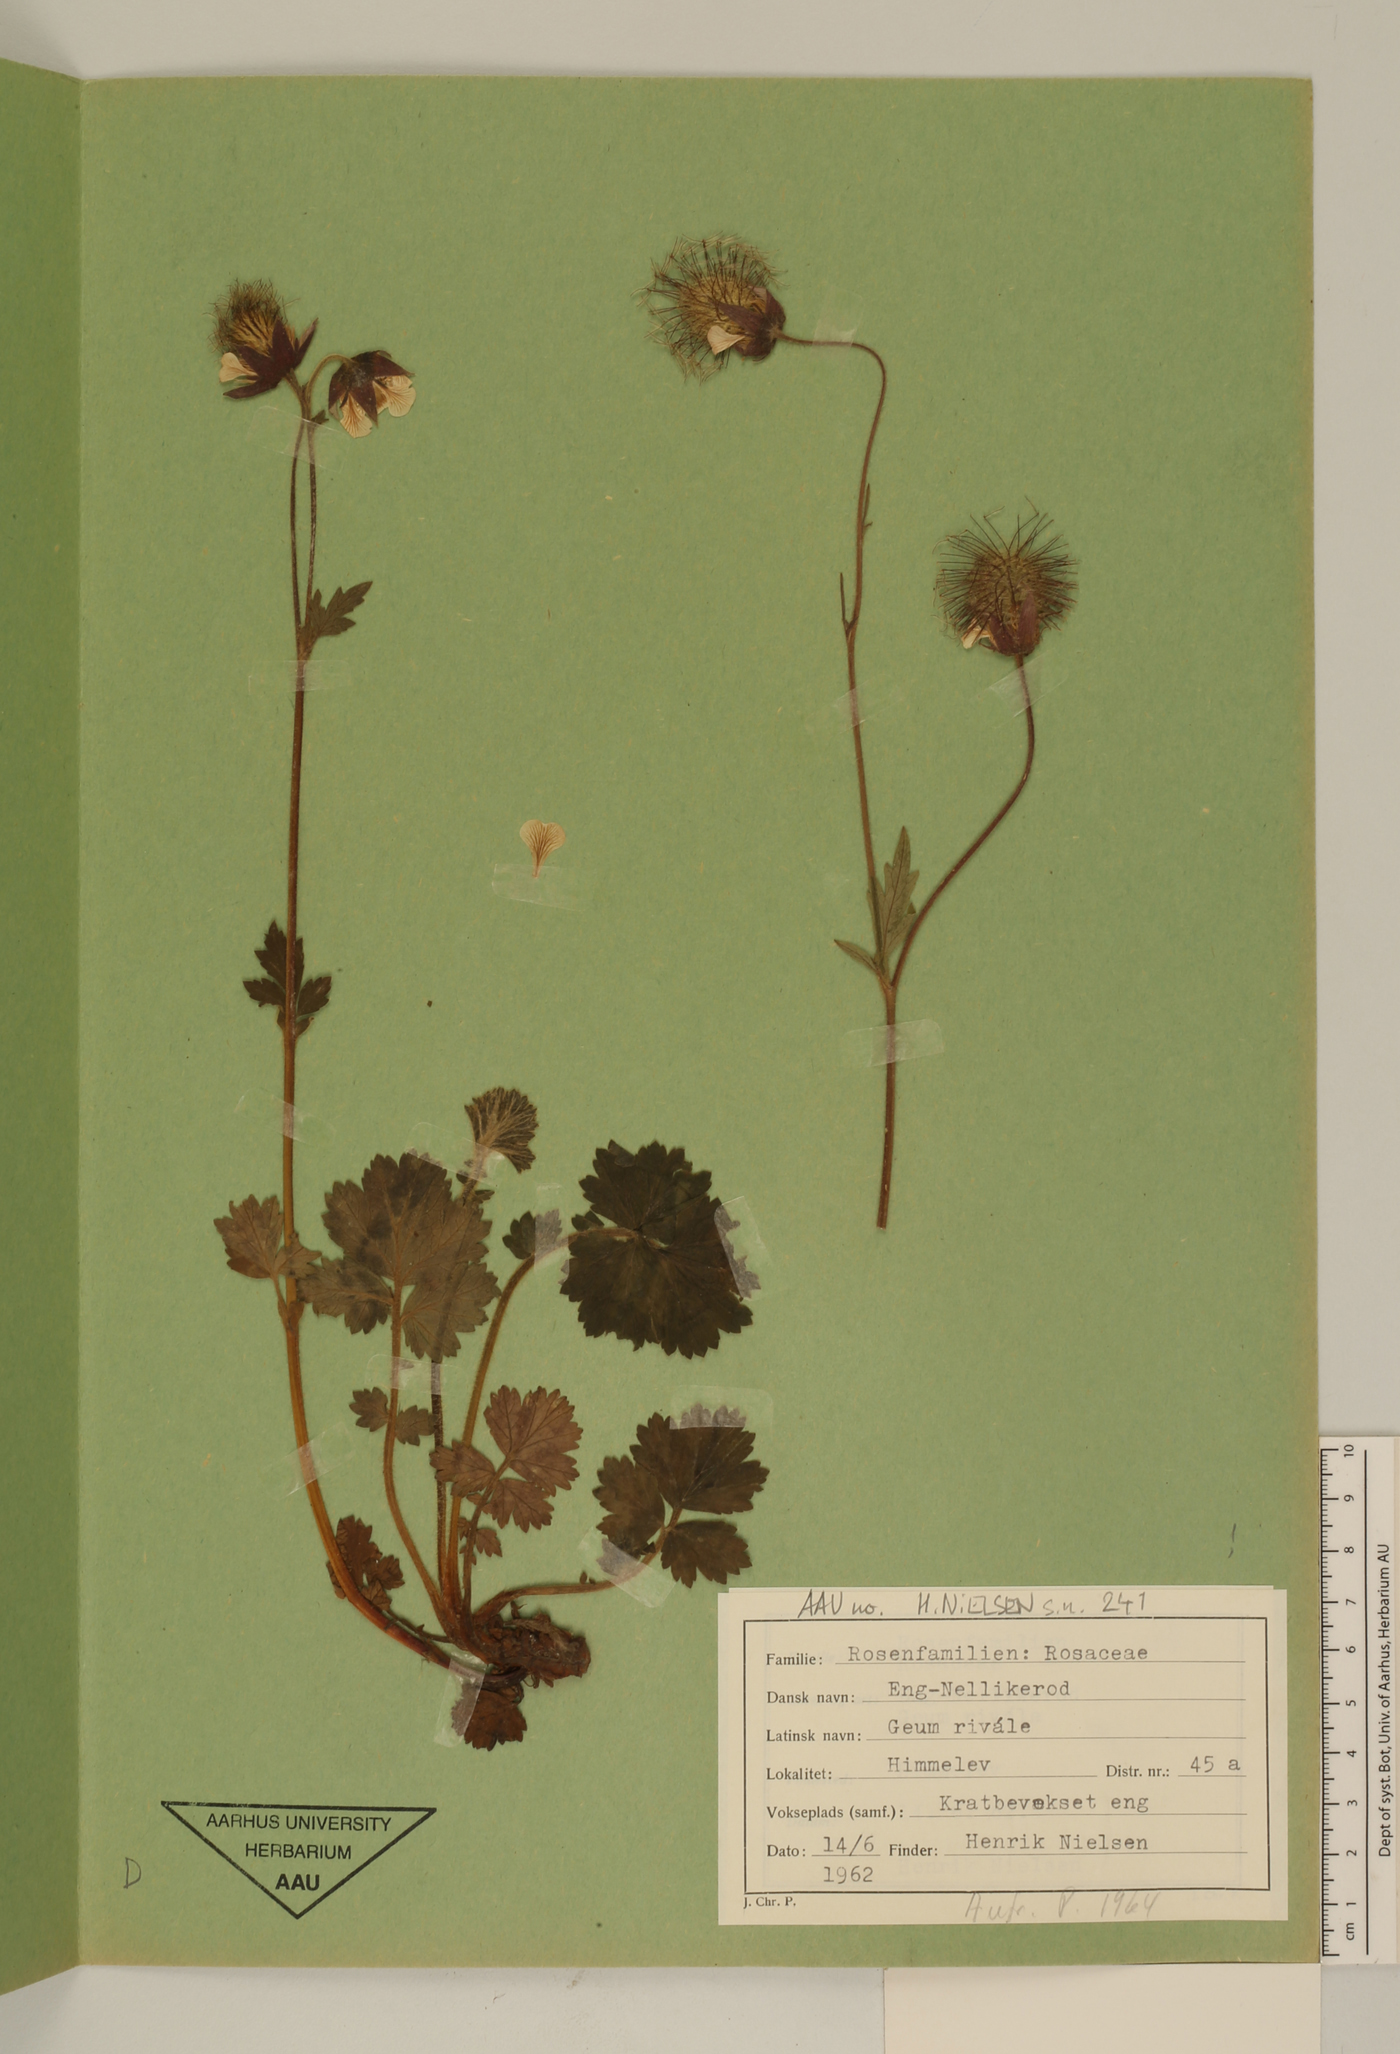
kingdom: Plantae
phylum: Tracheophyta
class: Magnoliopsida
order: Rosales
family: Rosaceae
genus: Geum
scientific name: Geum rivale
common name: Water avens
